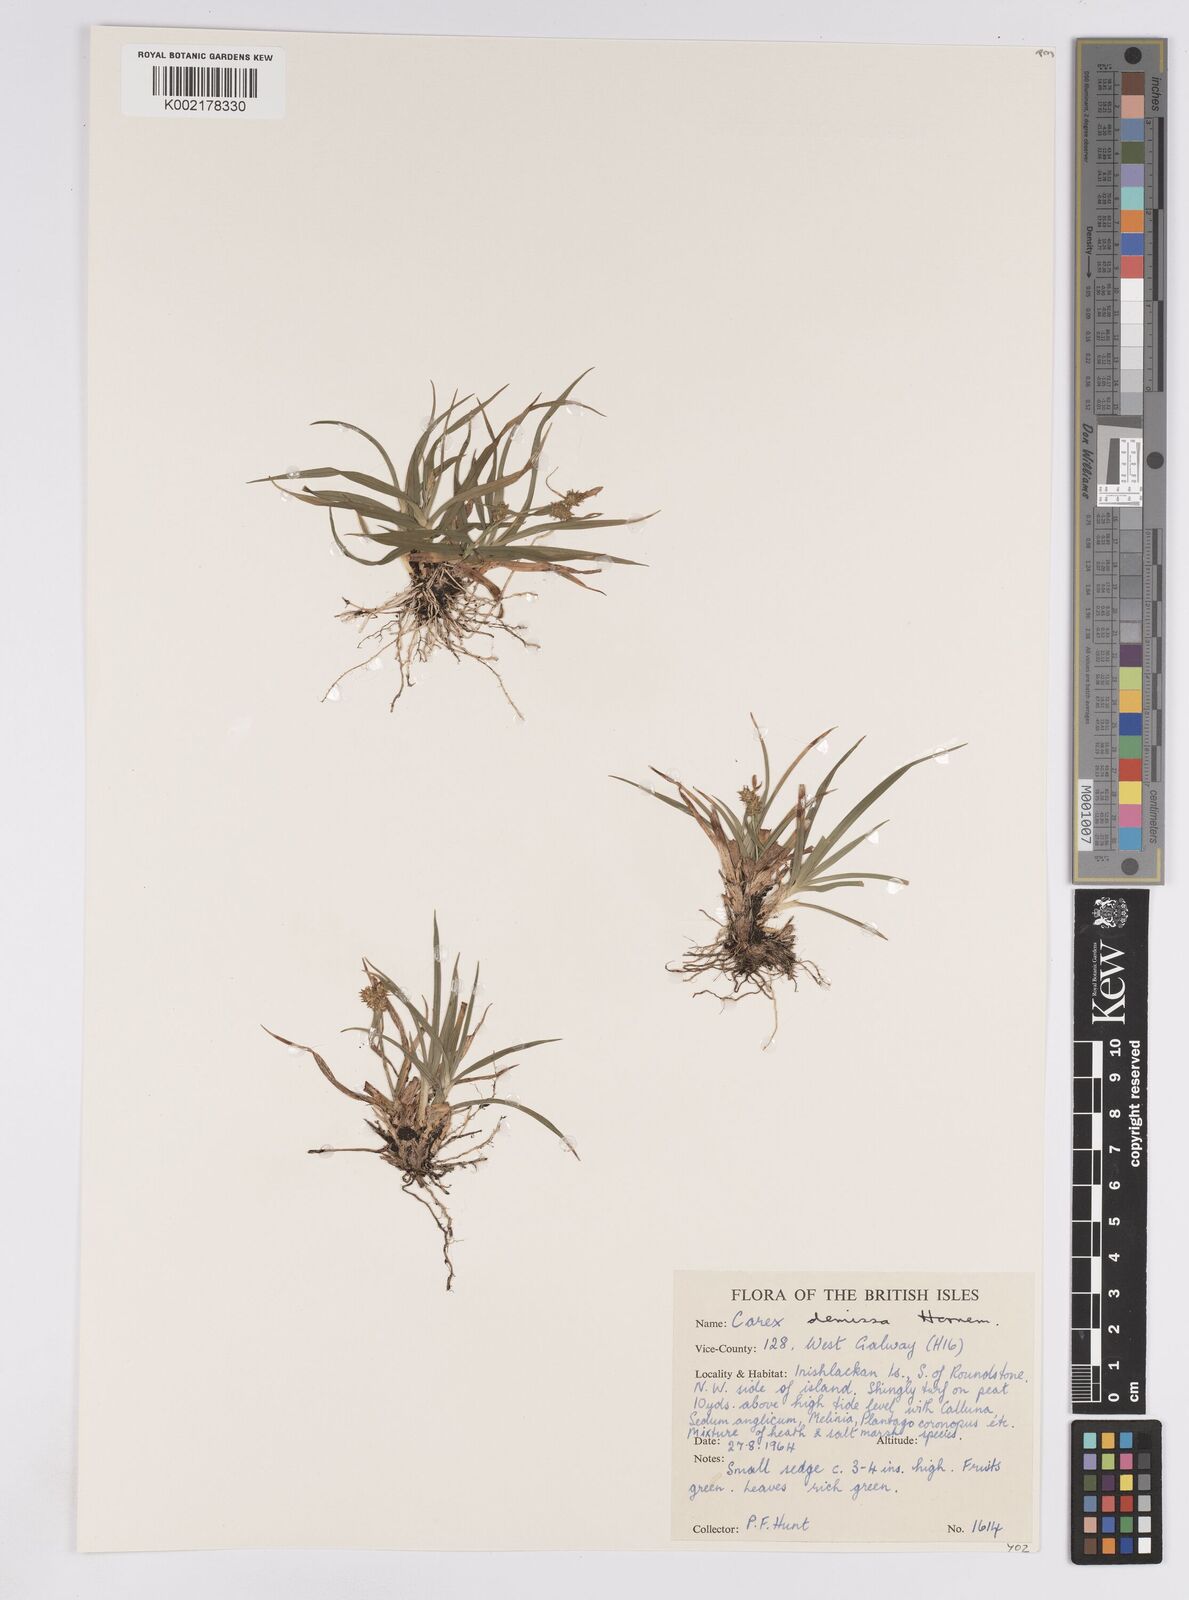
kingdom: Plantae
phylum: Tracheophyta
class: Liliopsida
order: Poales
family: Cyperaceae
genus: Carex
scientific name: Carex demissa
